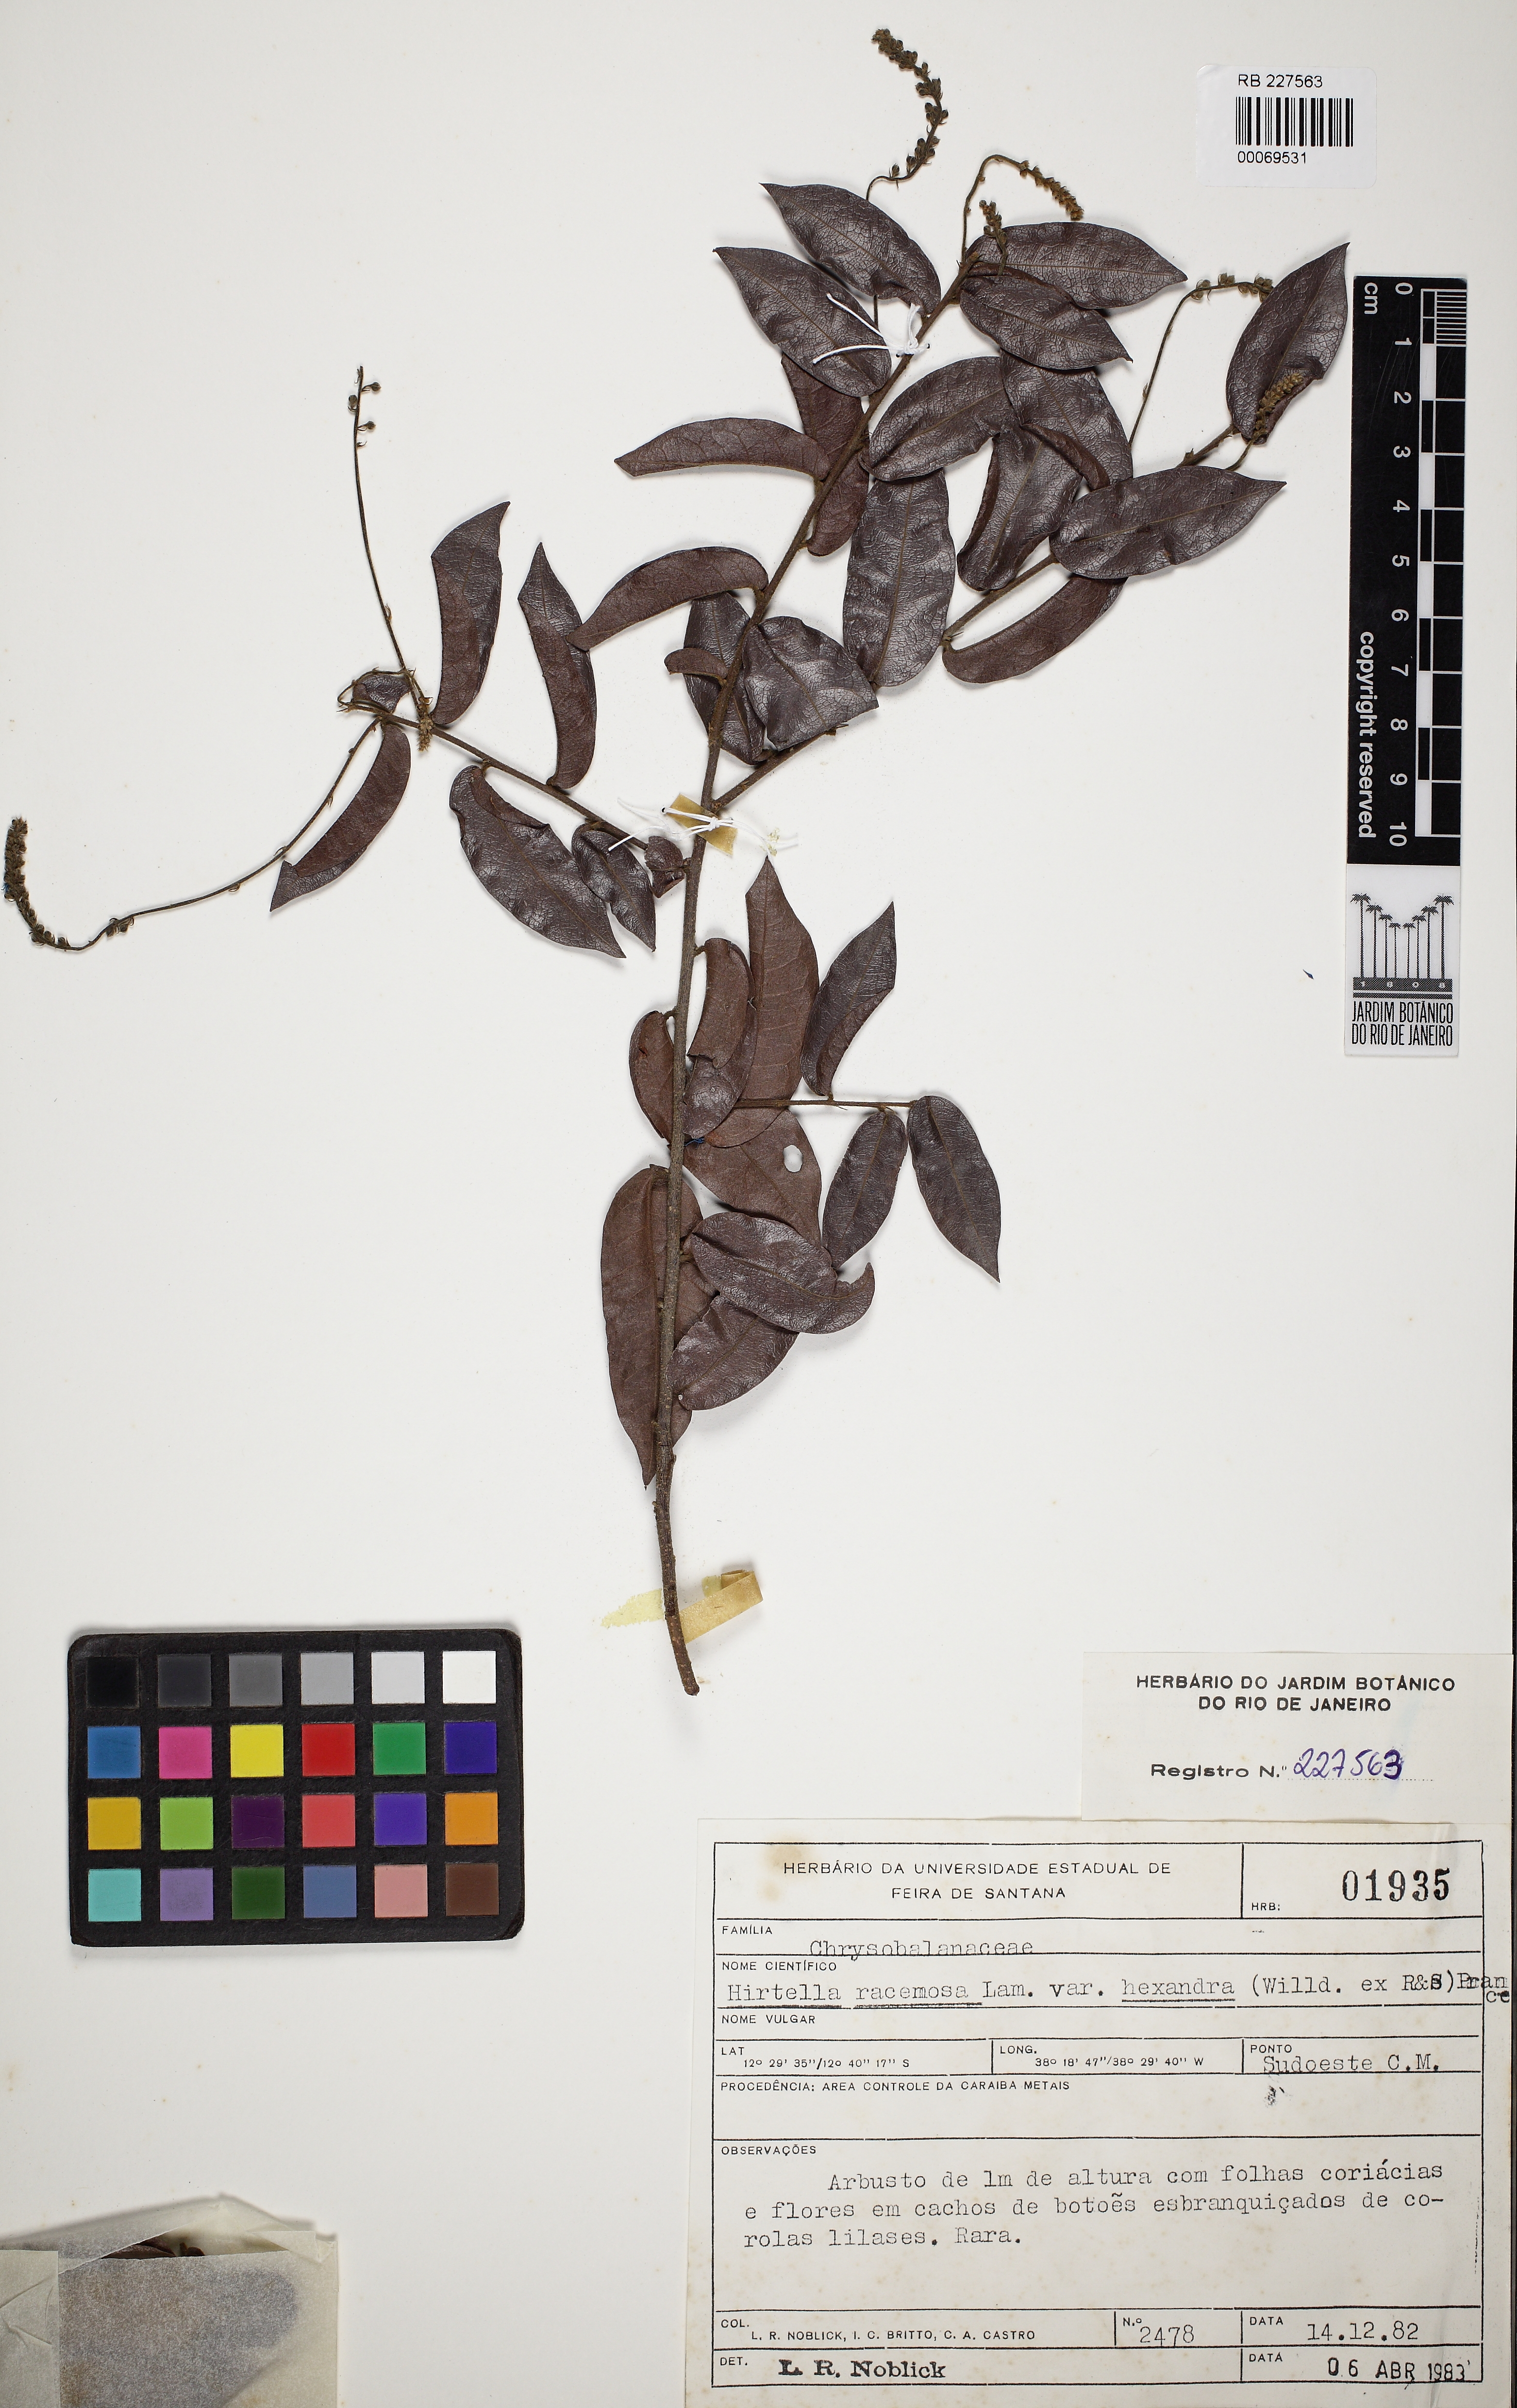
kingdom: Plantae
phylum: Tracheophyta
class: Magnoliopsida
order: Malpighiales
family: Chrysobalanaceae
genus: Hirtella
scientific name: Hirtella racemosa
